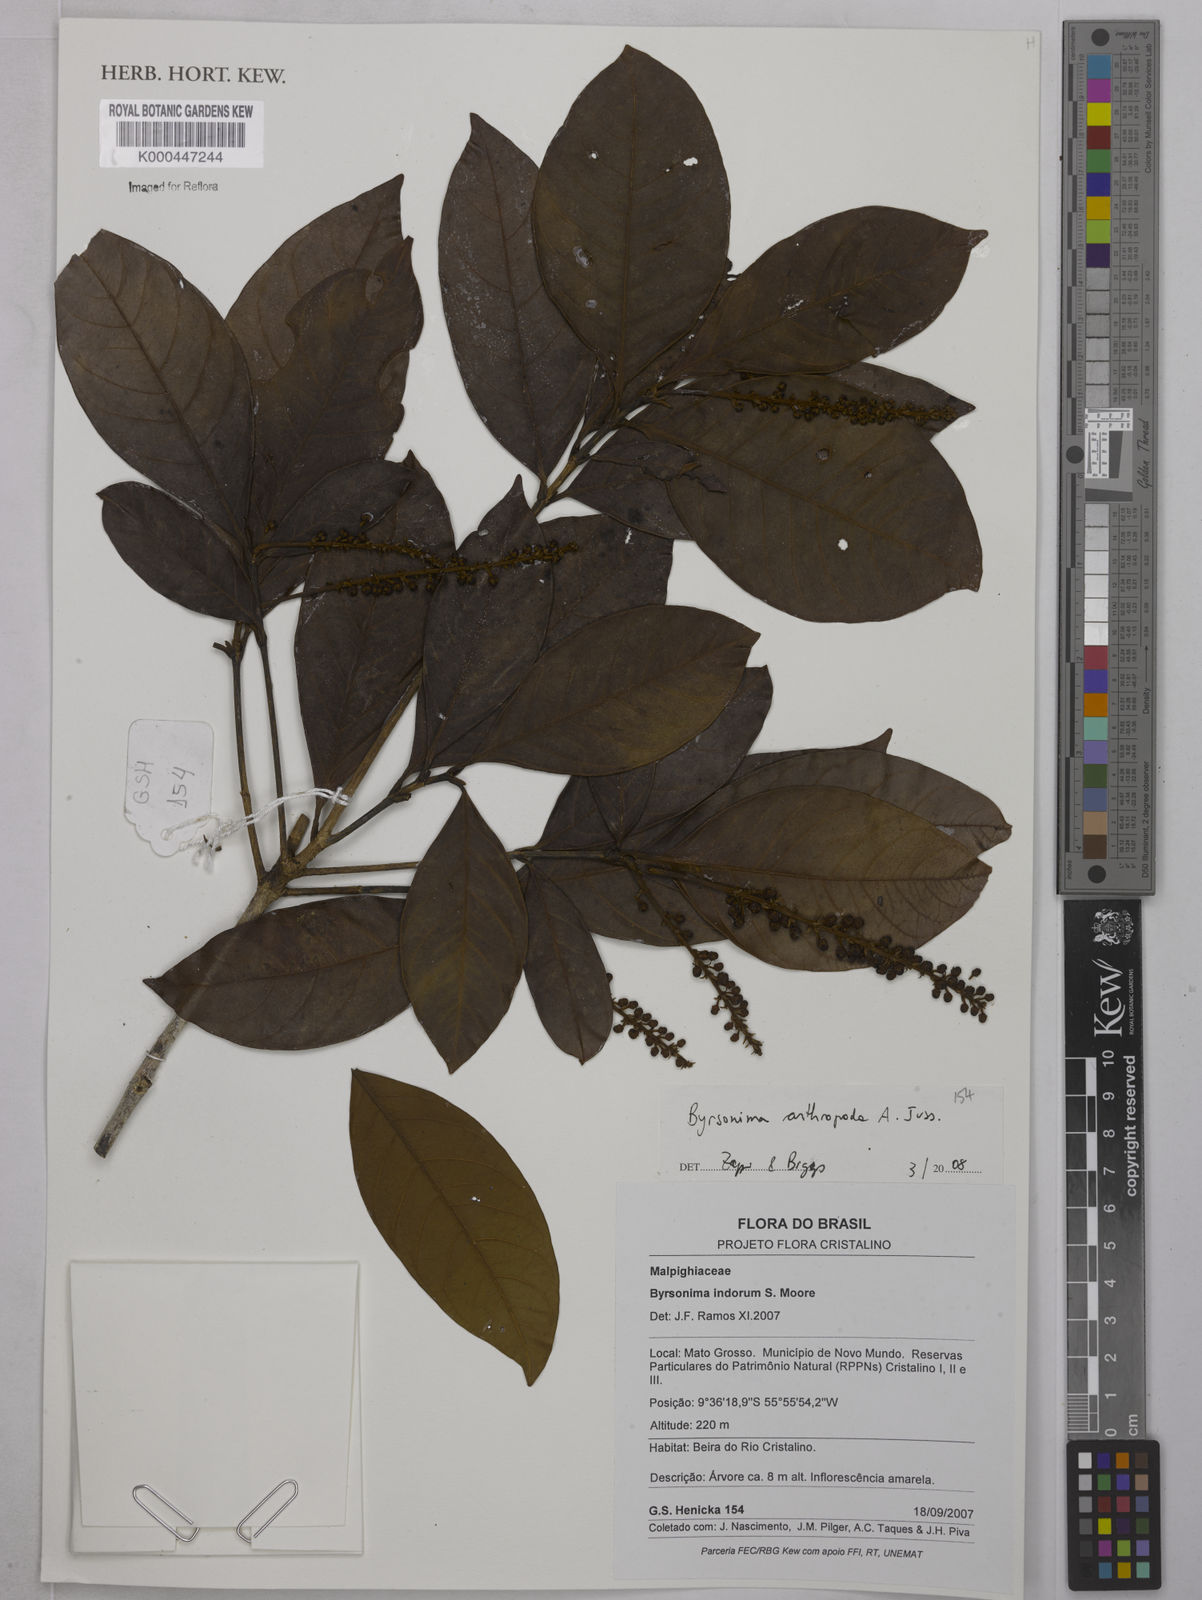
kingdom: Plantae
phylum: Tracheophyta
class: Magnoliopsida
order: Malpighiales
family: Malpighiaceae
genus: Byrsonima
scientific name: Byrsonima arthropoda
